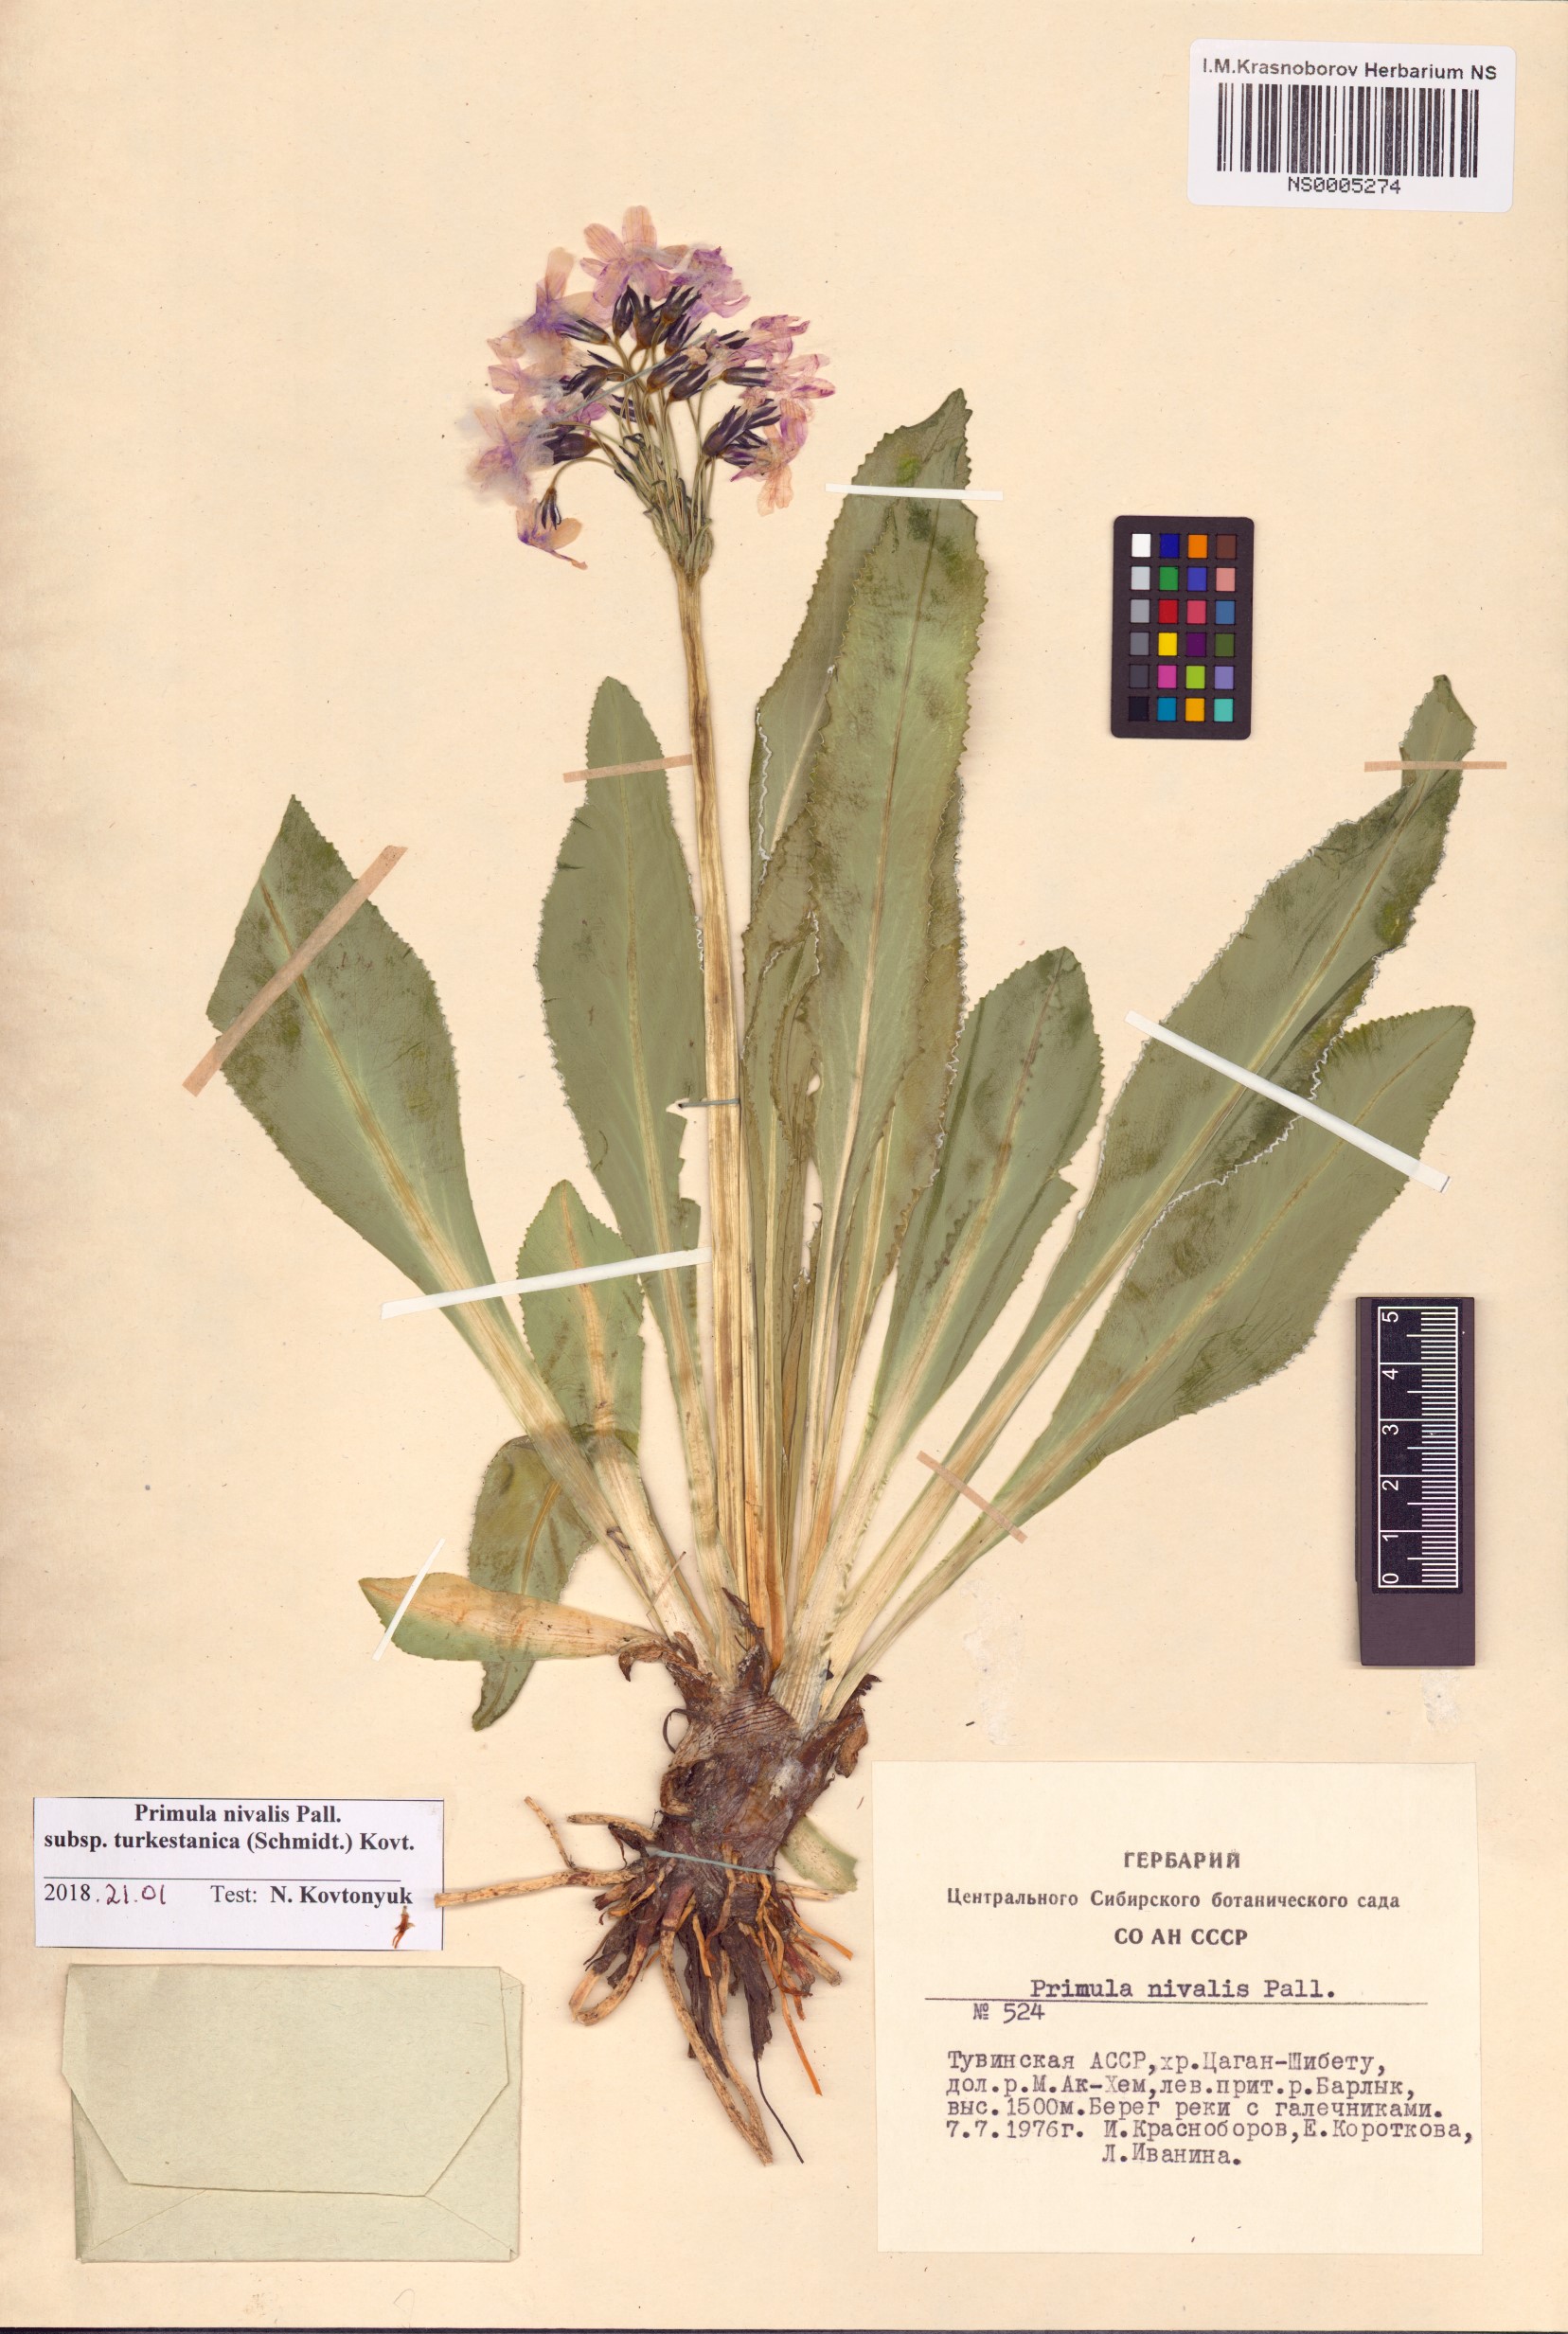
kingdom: Plantae
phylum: Tracheophyta
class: Magnoliopsida
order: Ericales
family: Primulaceae
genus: Primula
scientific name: Primula nivalis
